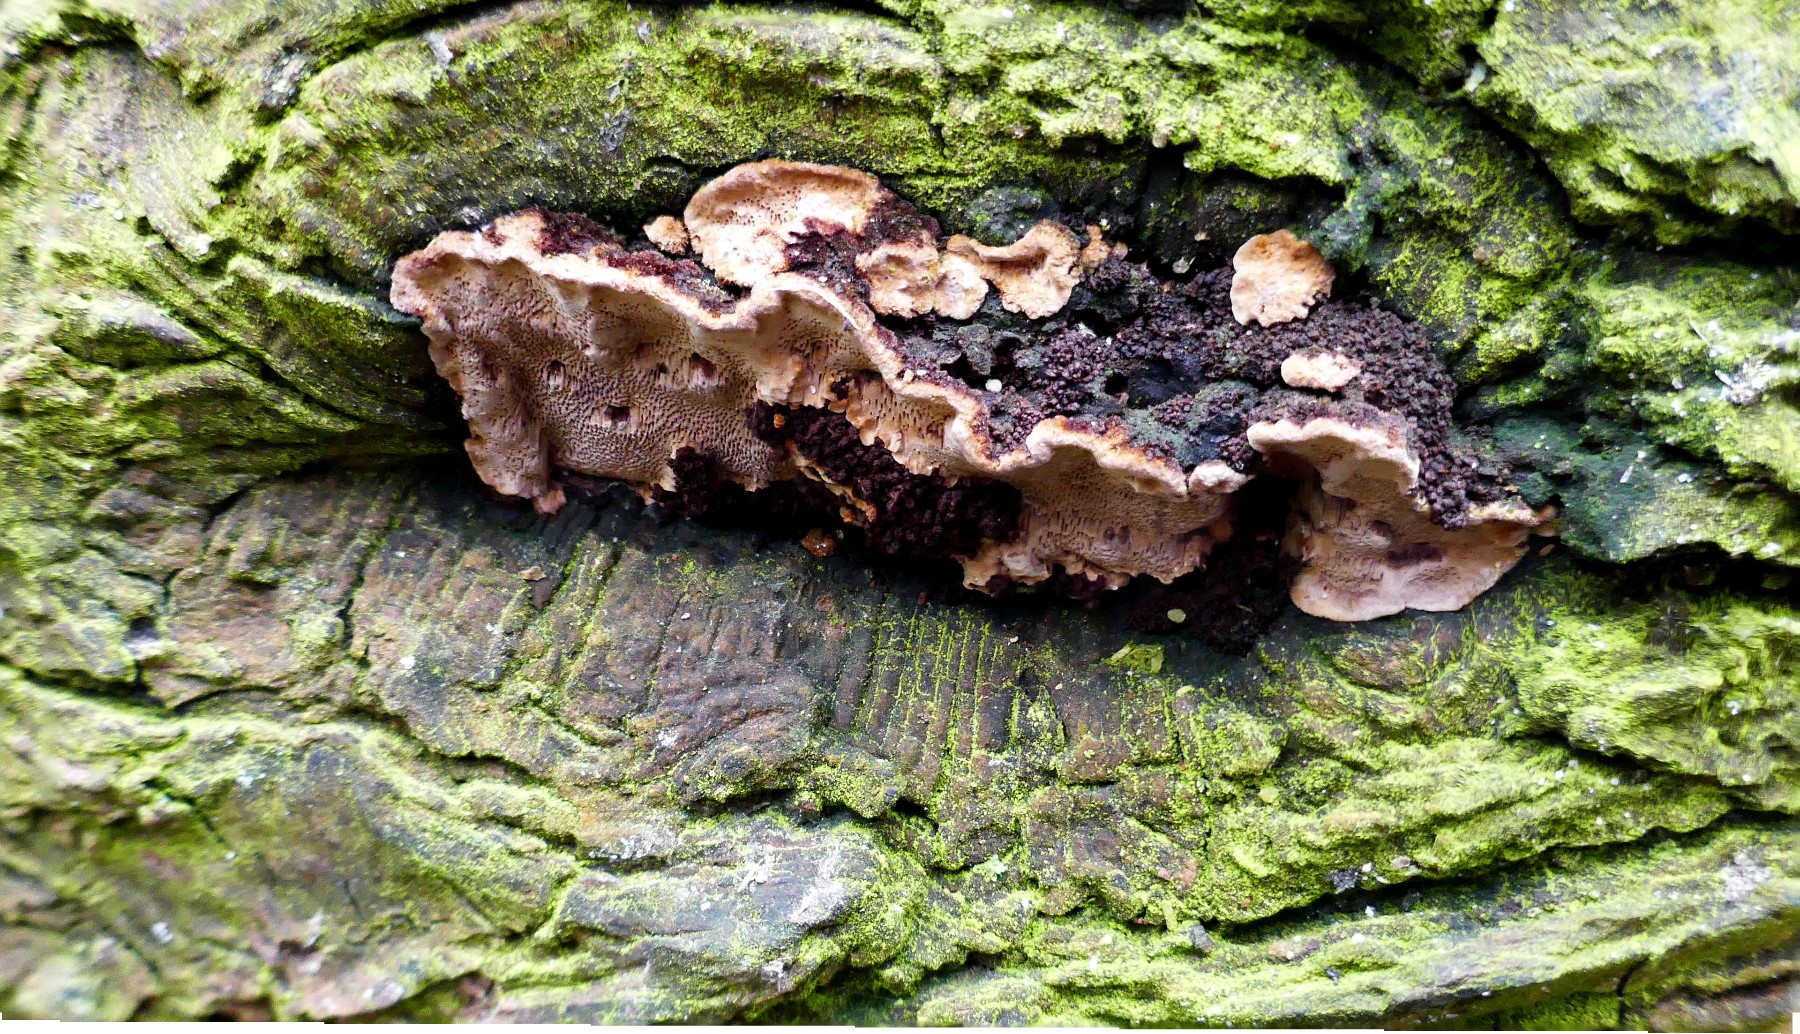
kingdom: Fungi
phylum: Basidiomycota
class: Agaricomycetes
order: Hymenochaetales
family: Hymenochaetaceae
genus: Phellinopsis
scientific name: Phellinopsis conchata
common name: pile-ildporesvamp
